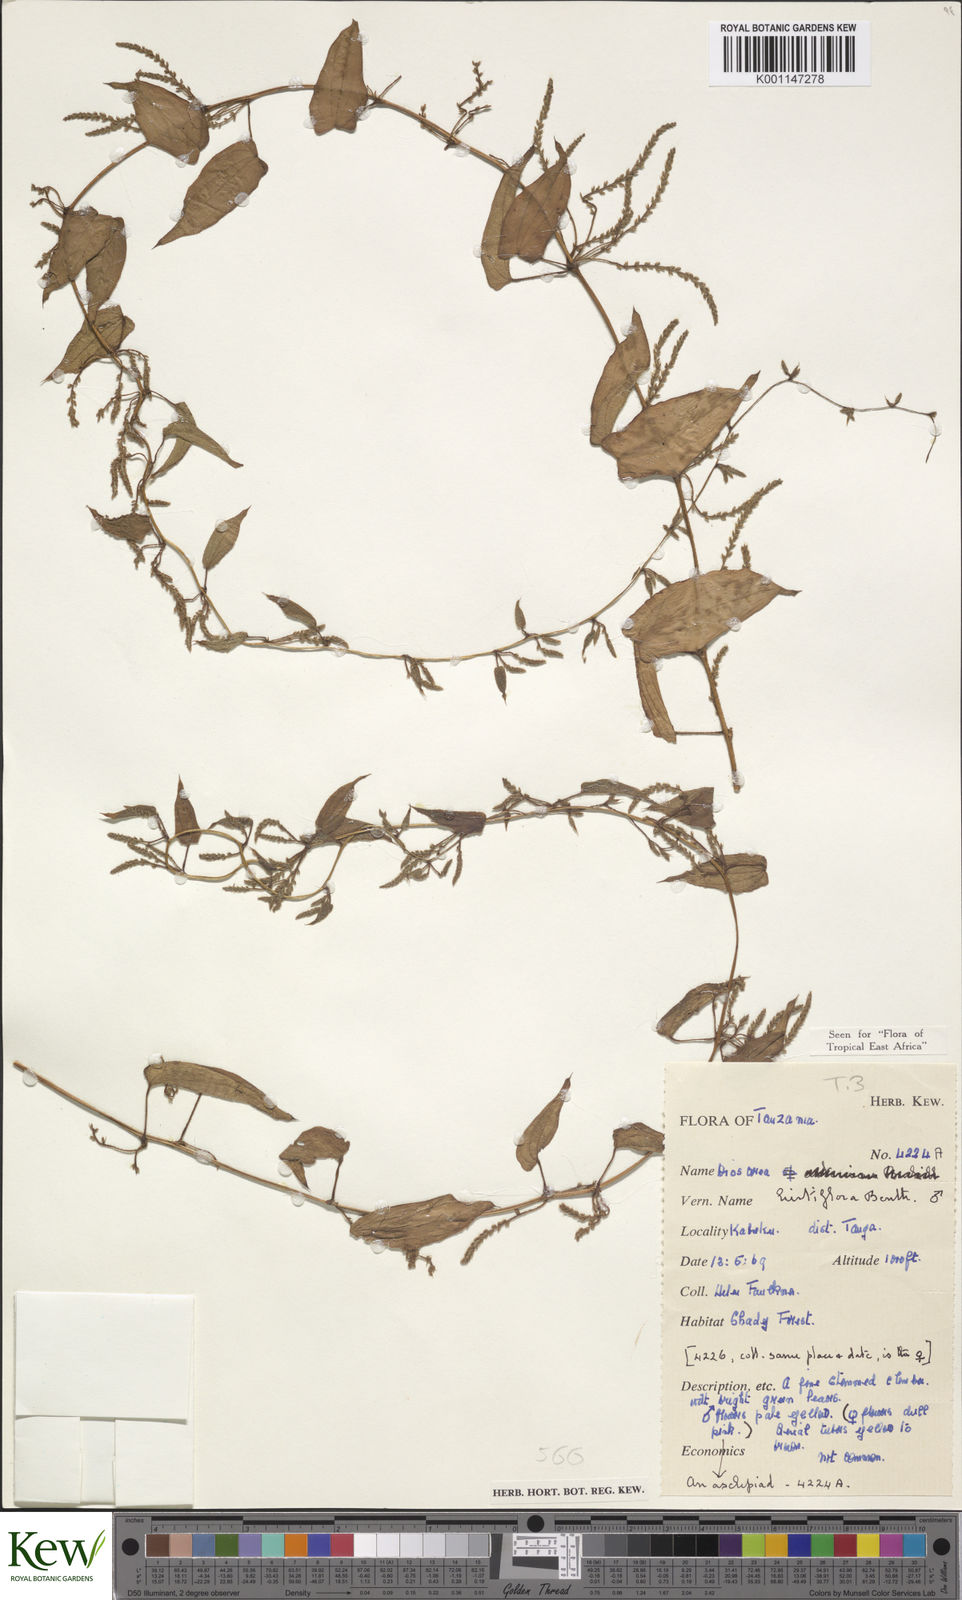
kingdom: Plantae
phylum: Tracheophyta
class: Liliopsida
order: Dioscoreales
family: Dioscoreaceae
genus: Dioscorea
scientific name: Dioscorea hirtiflora
